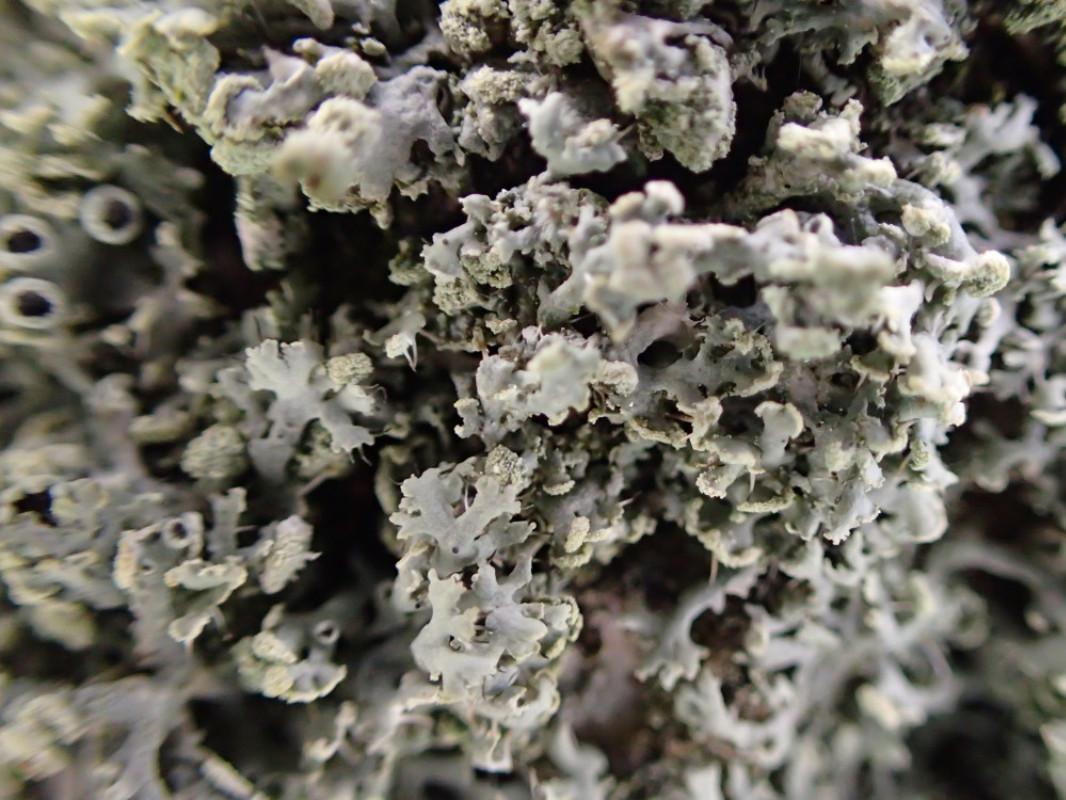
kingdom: Fungi
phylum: Ascomycota
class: Lecanoromycetes
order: Caliciales
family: Physciaceae
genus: Physcia
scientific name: Physcia tenella
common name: spæd rosetlav
